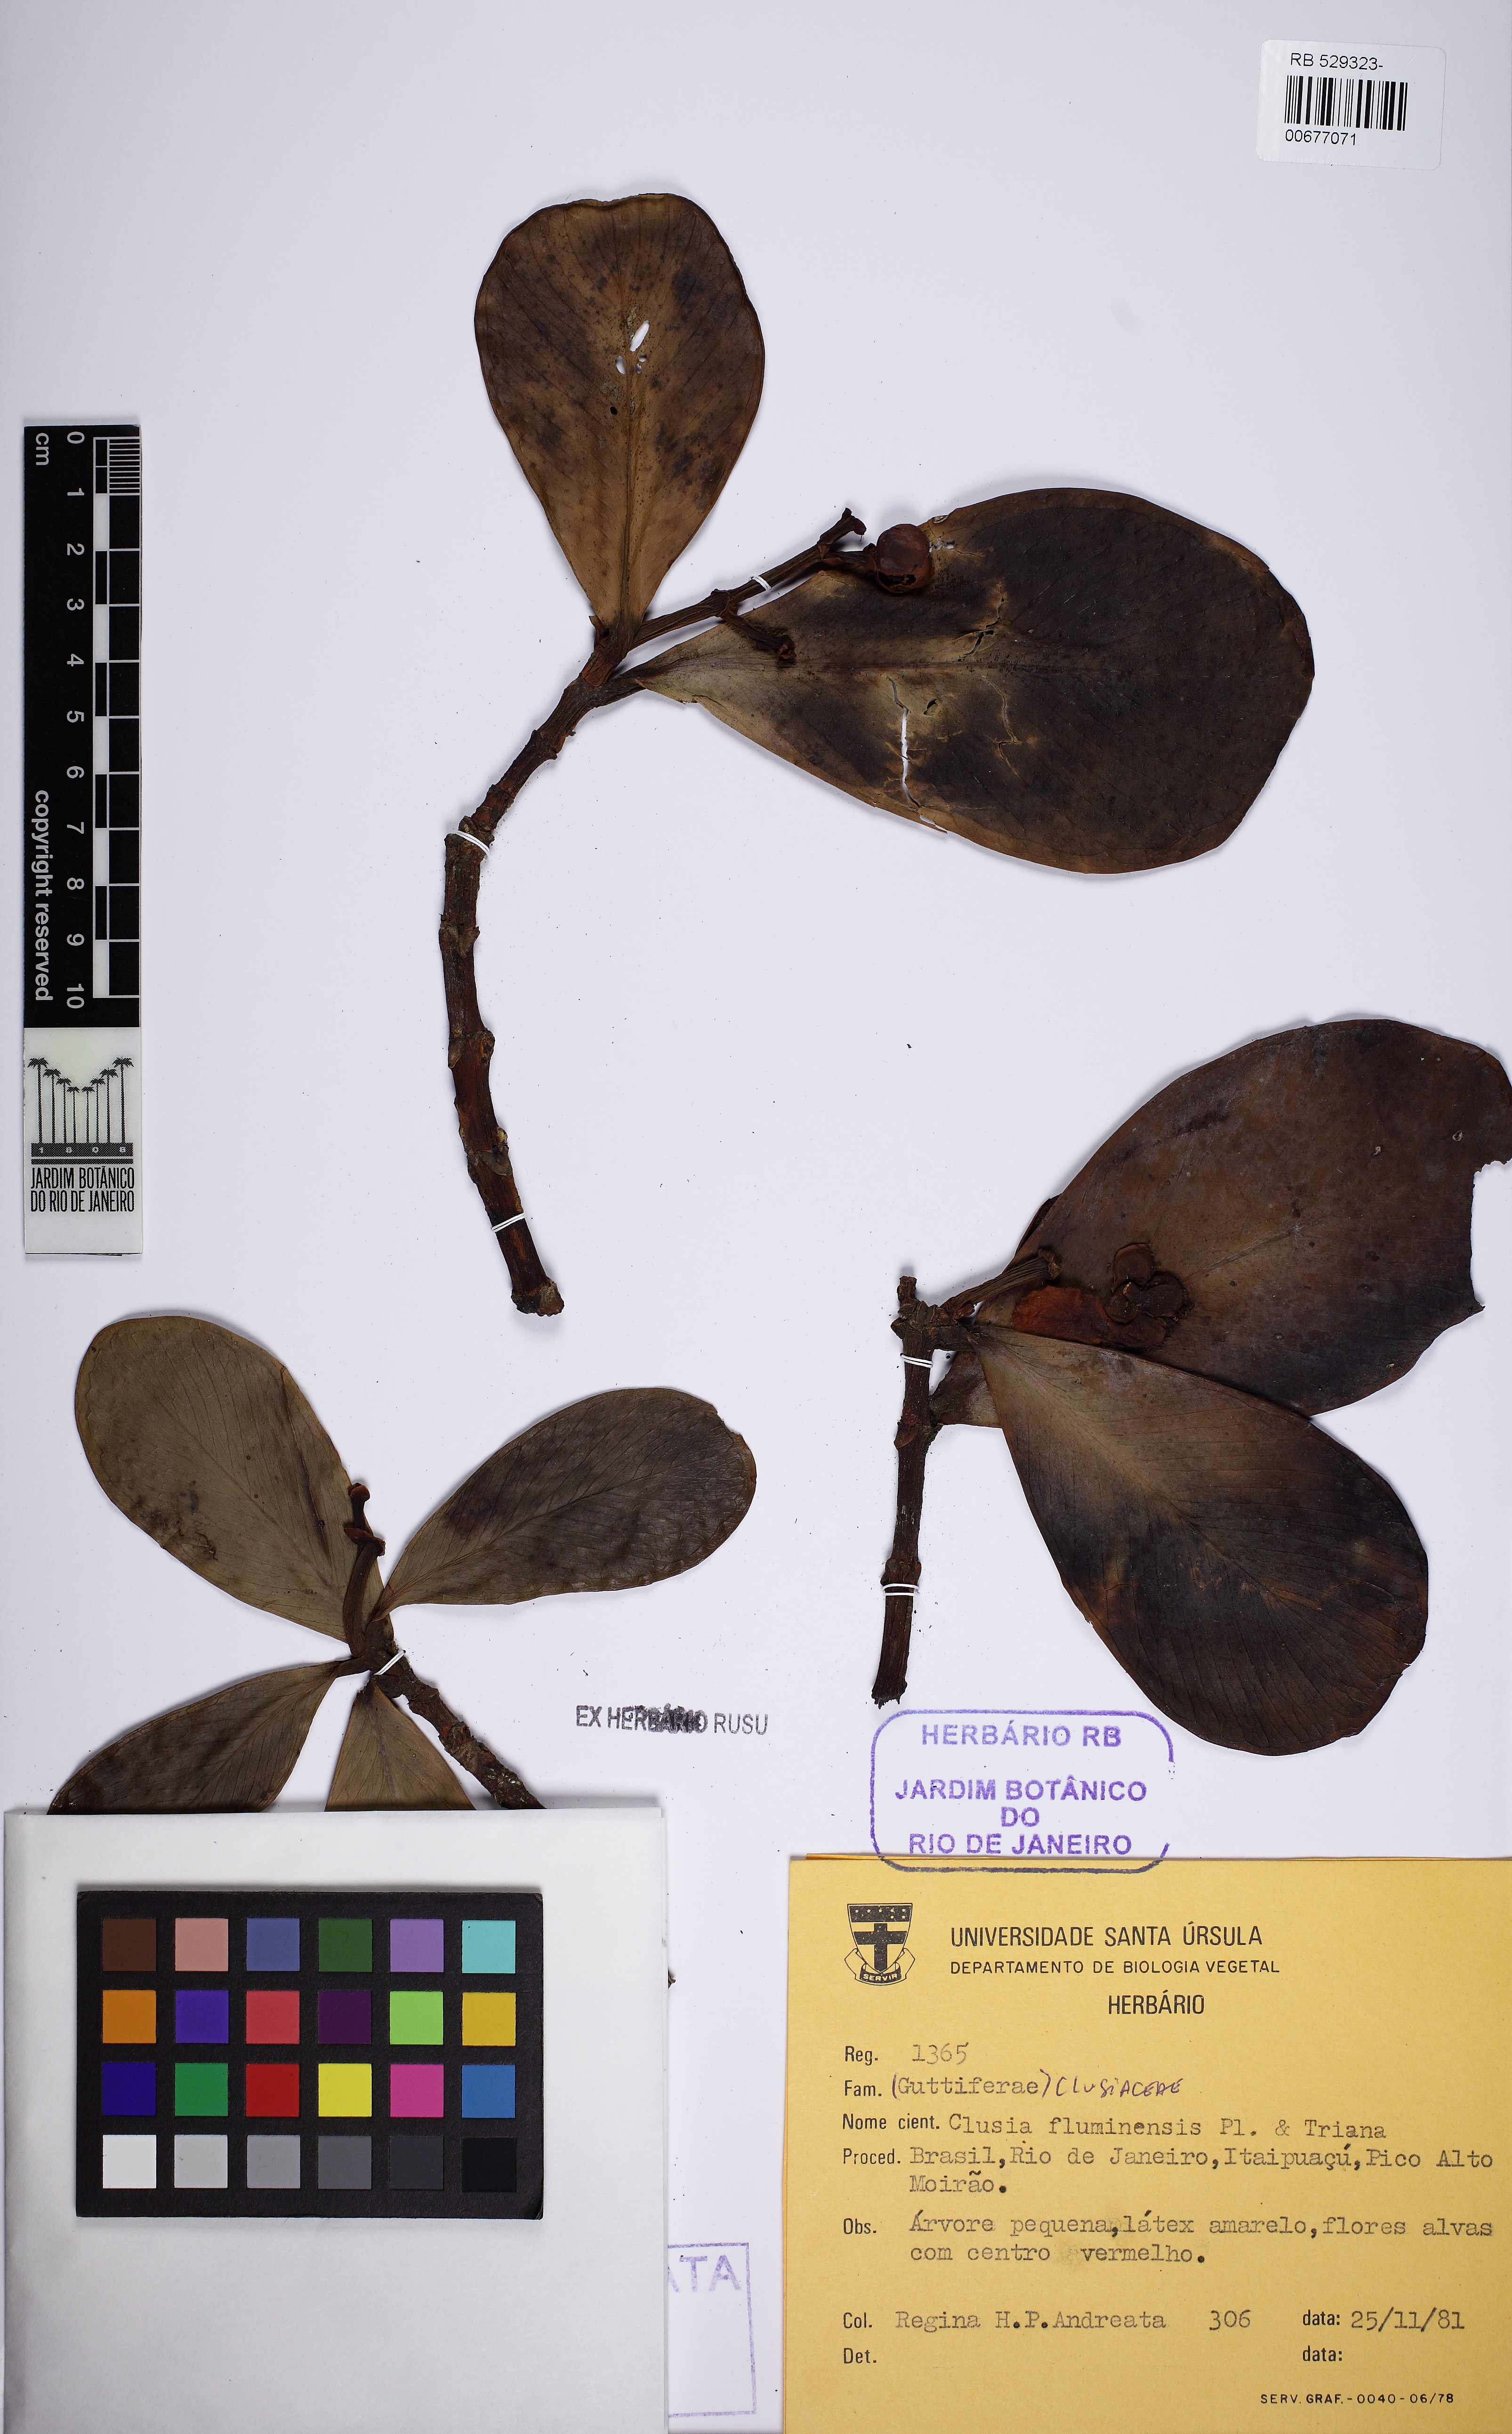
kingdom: Plantae
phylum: Tracheophyta
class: Magnoliopsida
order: Malpighiales
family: Clusiaceae
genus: Clusia
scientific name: Clusia fluminensis
